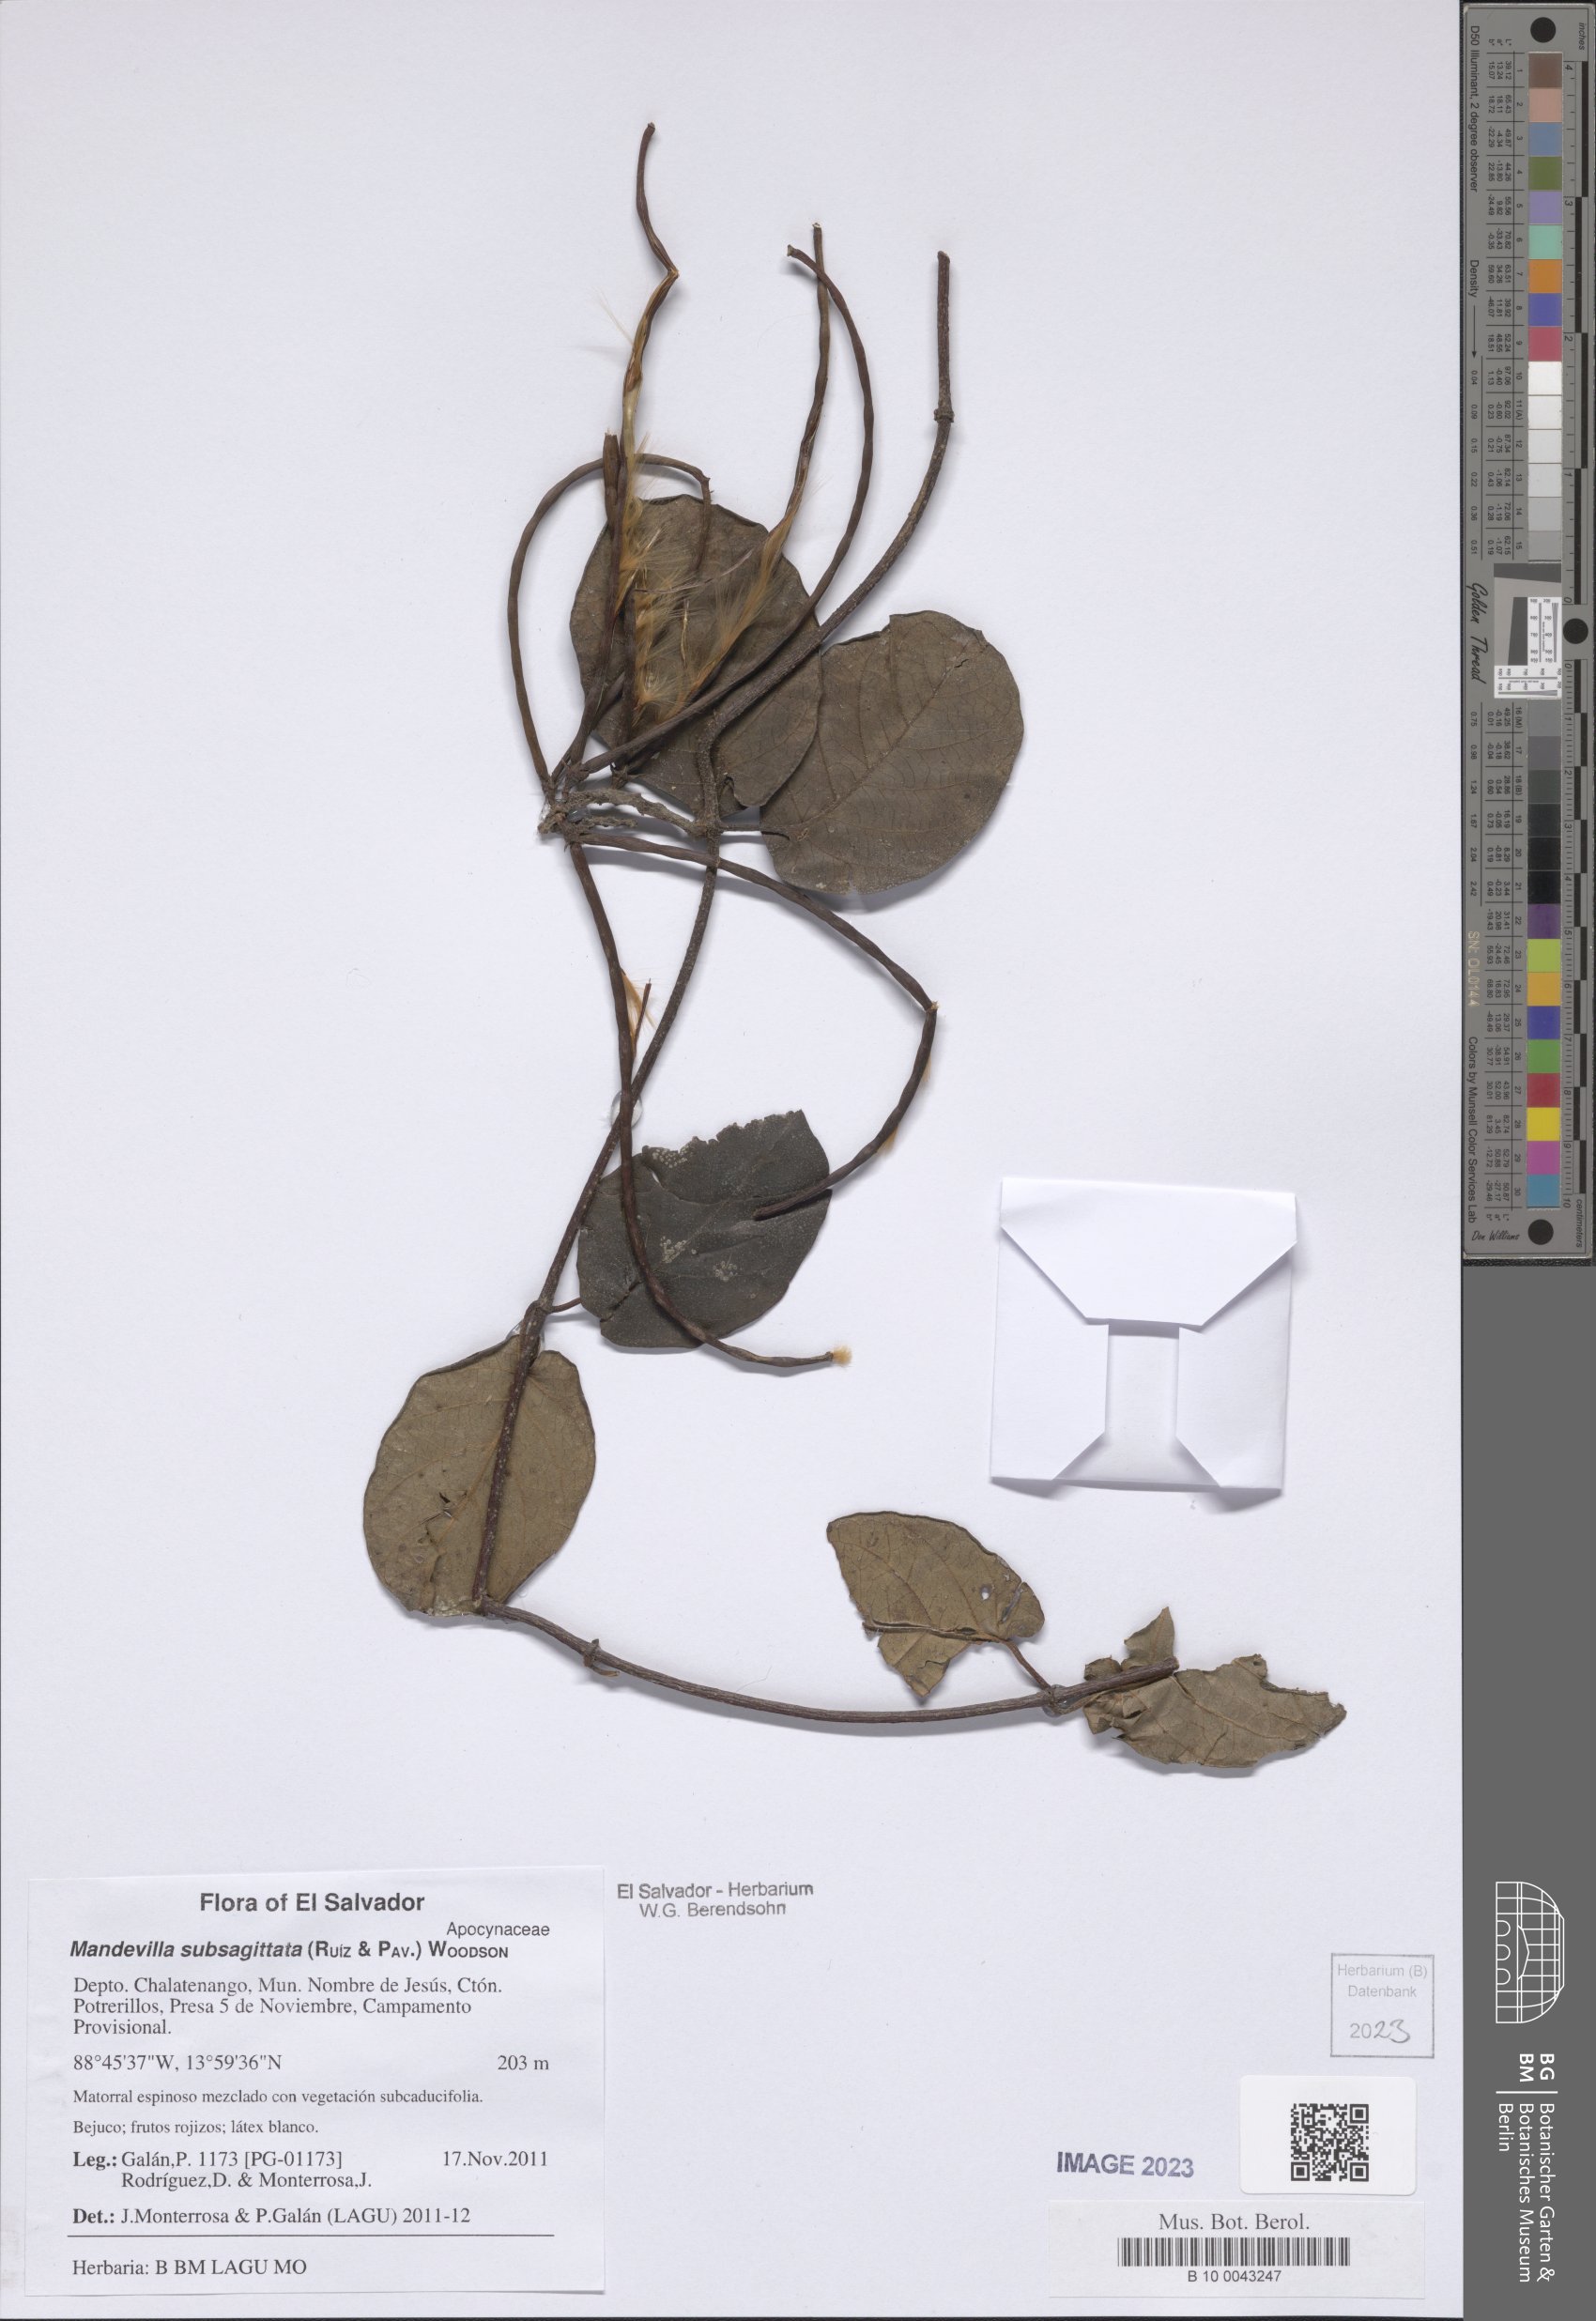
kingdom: Plantae
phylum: Tracheophyta
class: Magnoliopsida
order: Gentianales
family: Apocynaceae
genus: Mandevilla
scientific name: Mandevilla subsagittata
